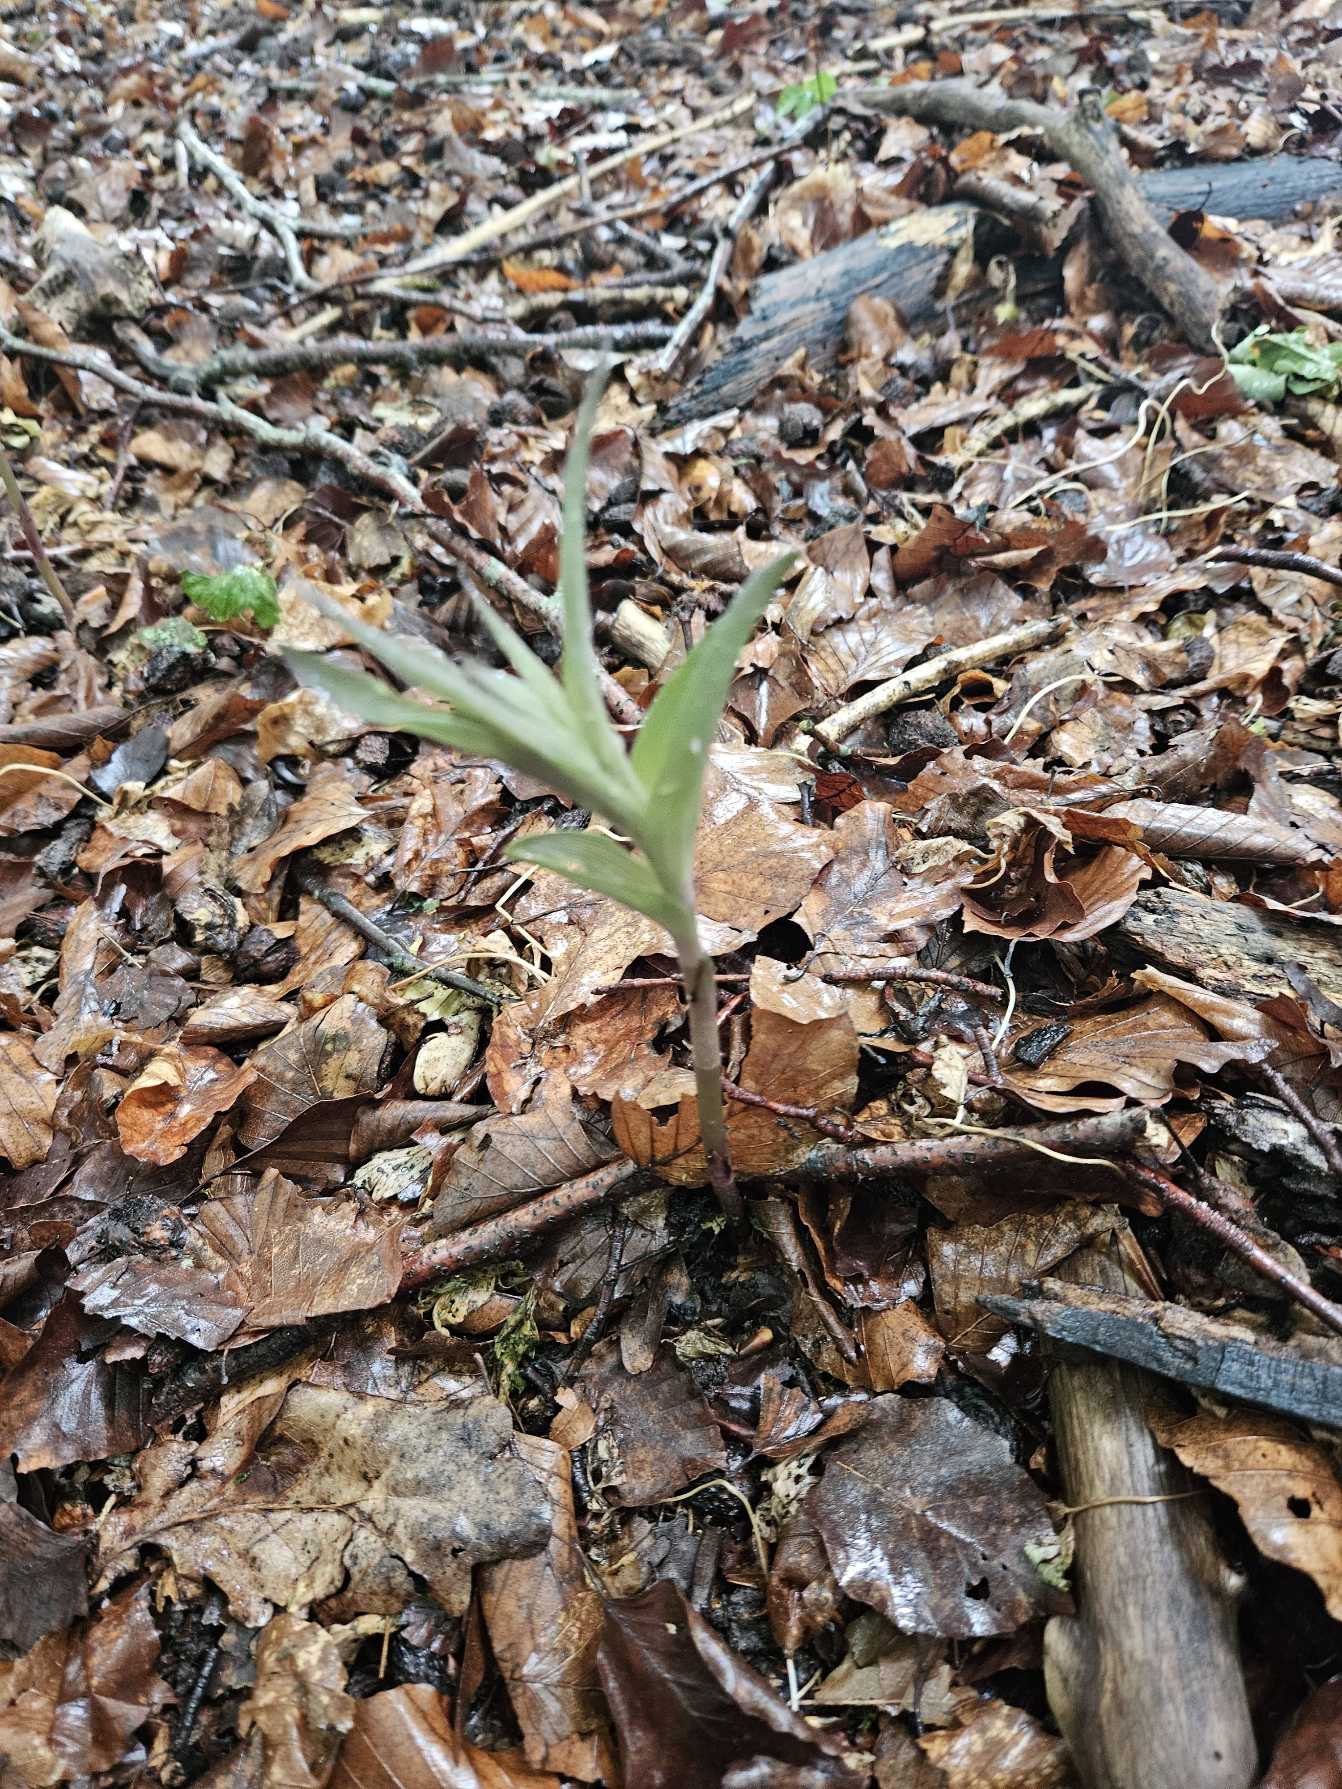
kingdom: Plantae
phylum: Tracheophyta
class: Liliopsida
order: Asparagales
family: Orchidaceae
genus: Epipactis
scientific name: Epipactis purpurata
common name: Tætblomstret hullæbe
